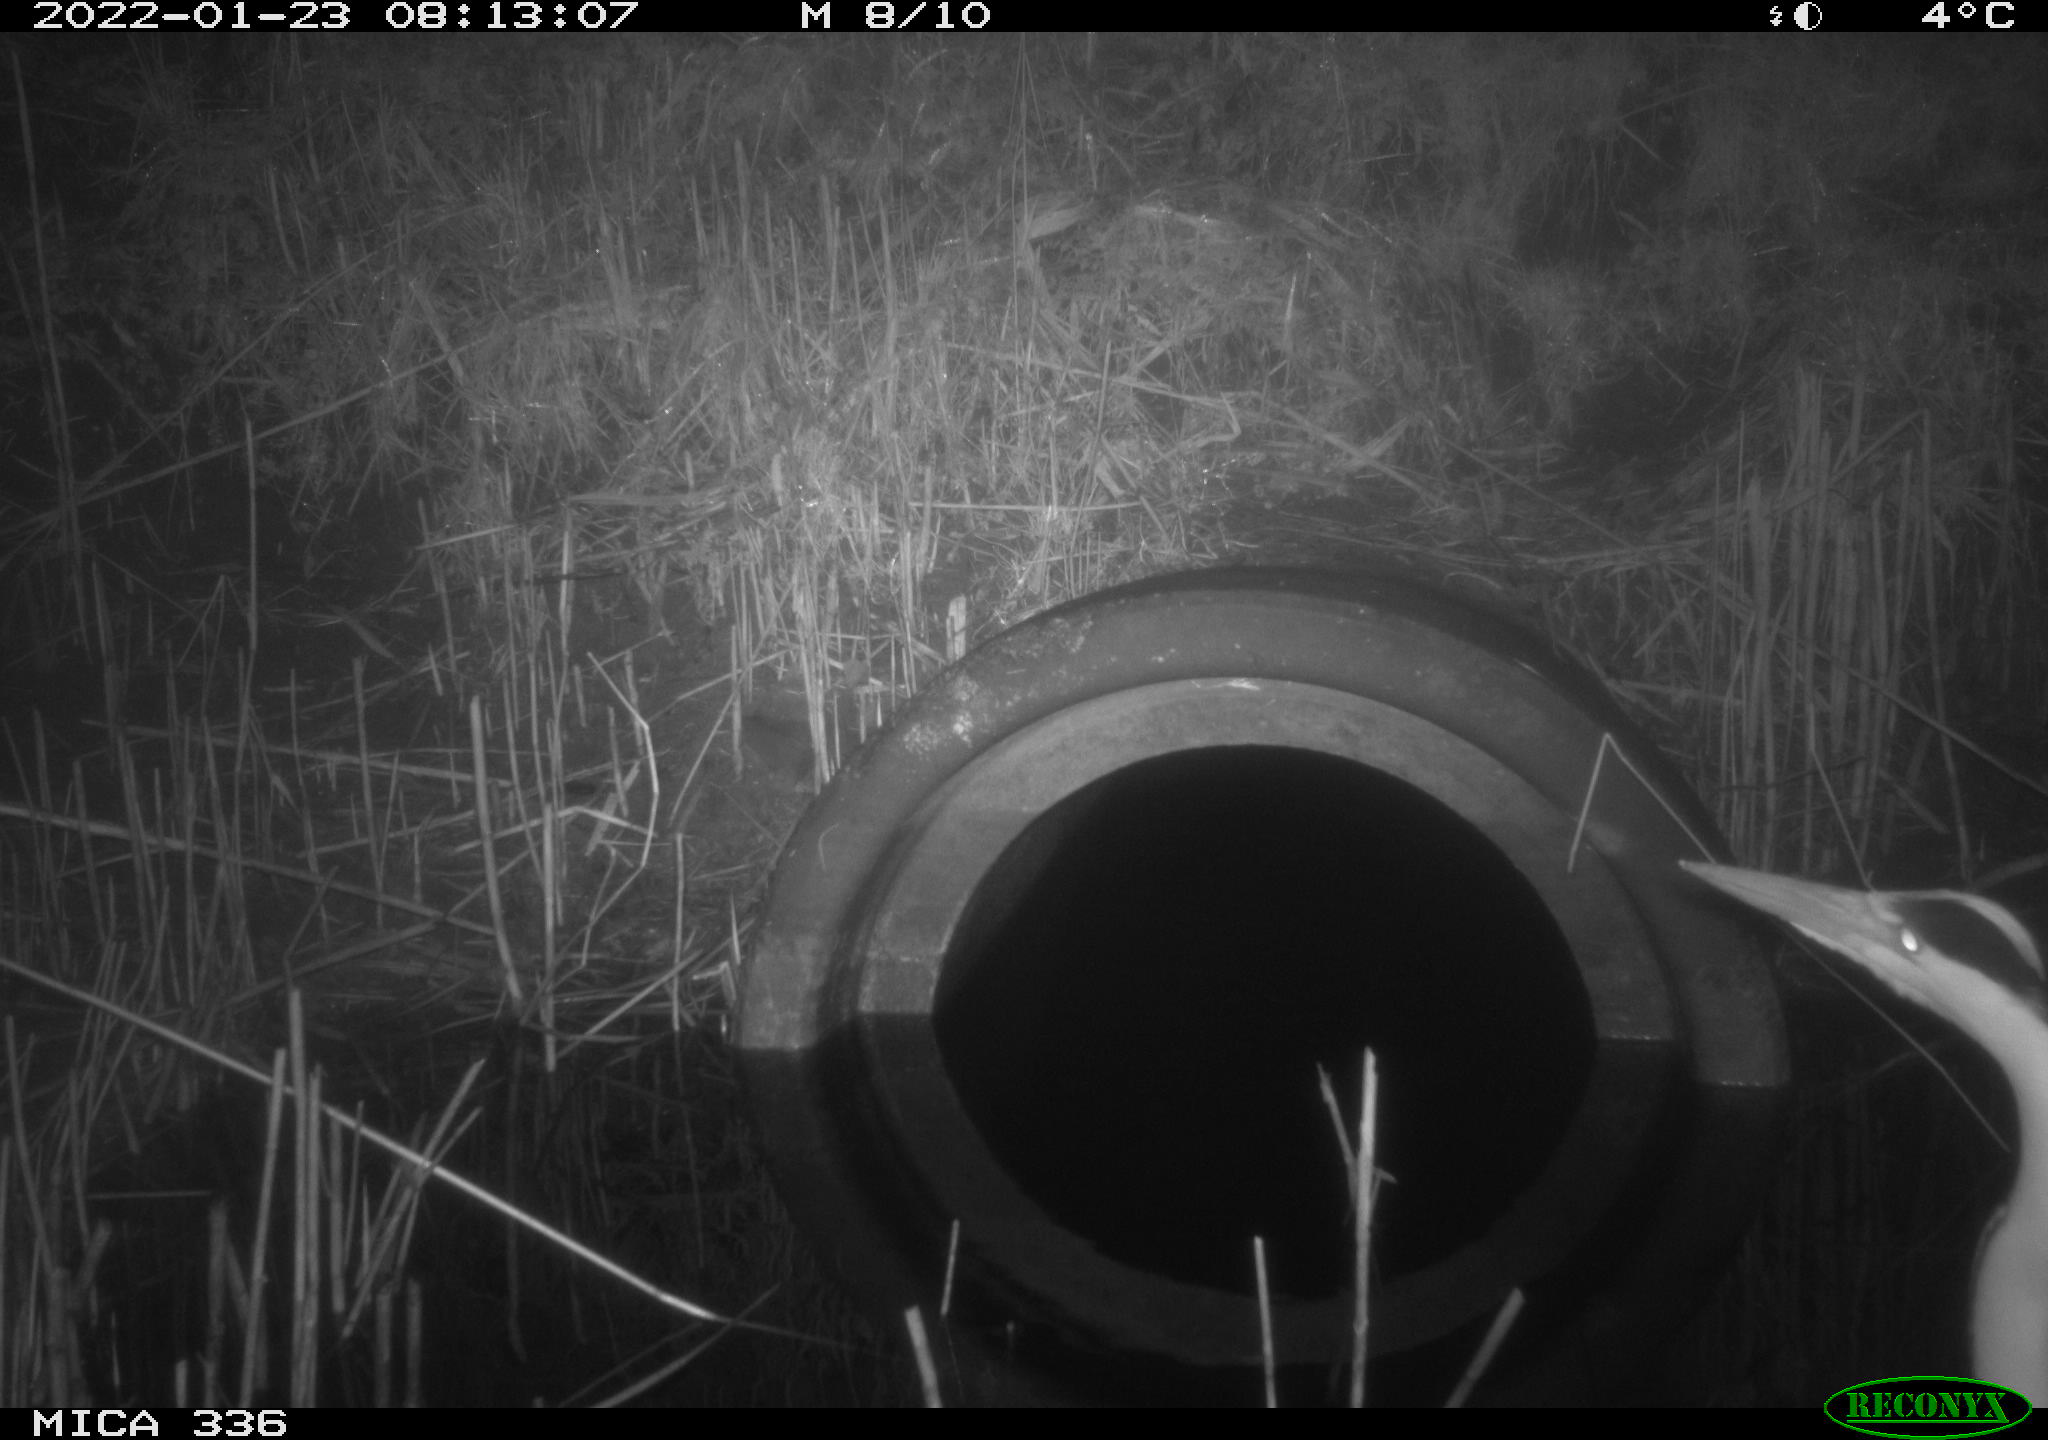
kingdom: Animalia
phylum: Chordata
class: Aves
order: Pelecaniformes
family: Ardeidae
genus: Ardea
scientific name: Ardea cinerea
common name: Grey heron
